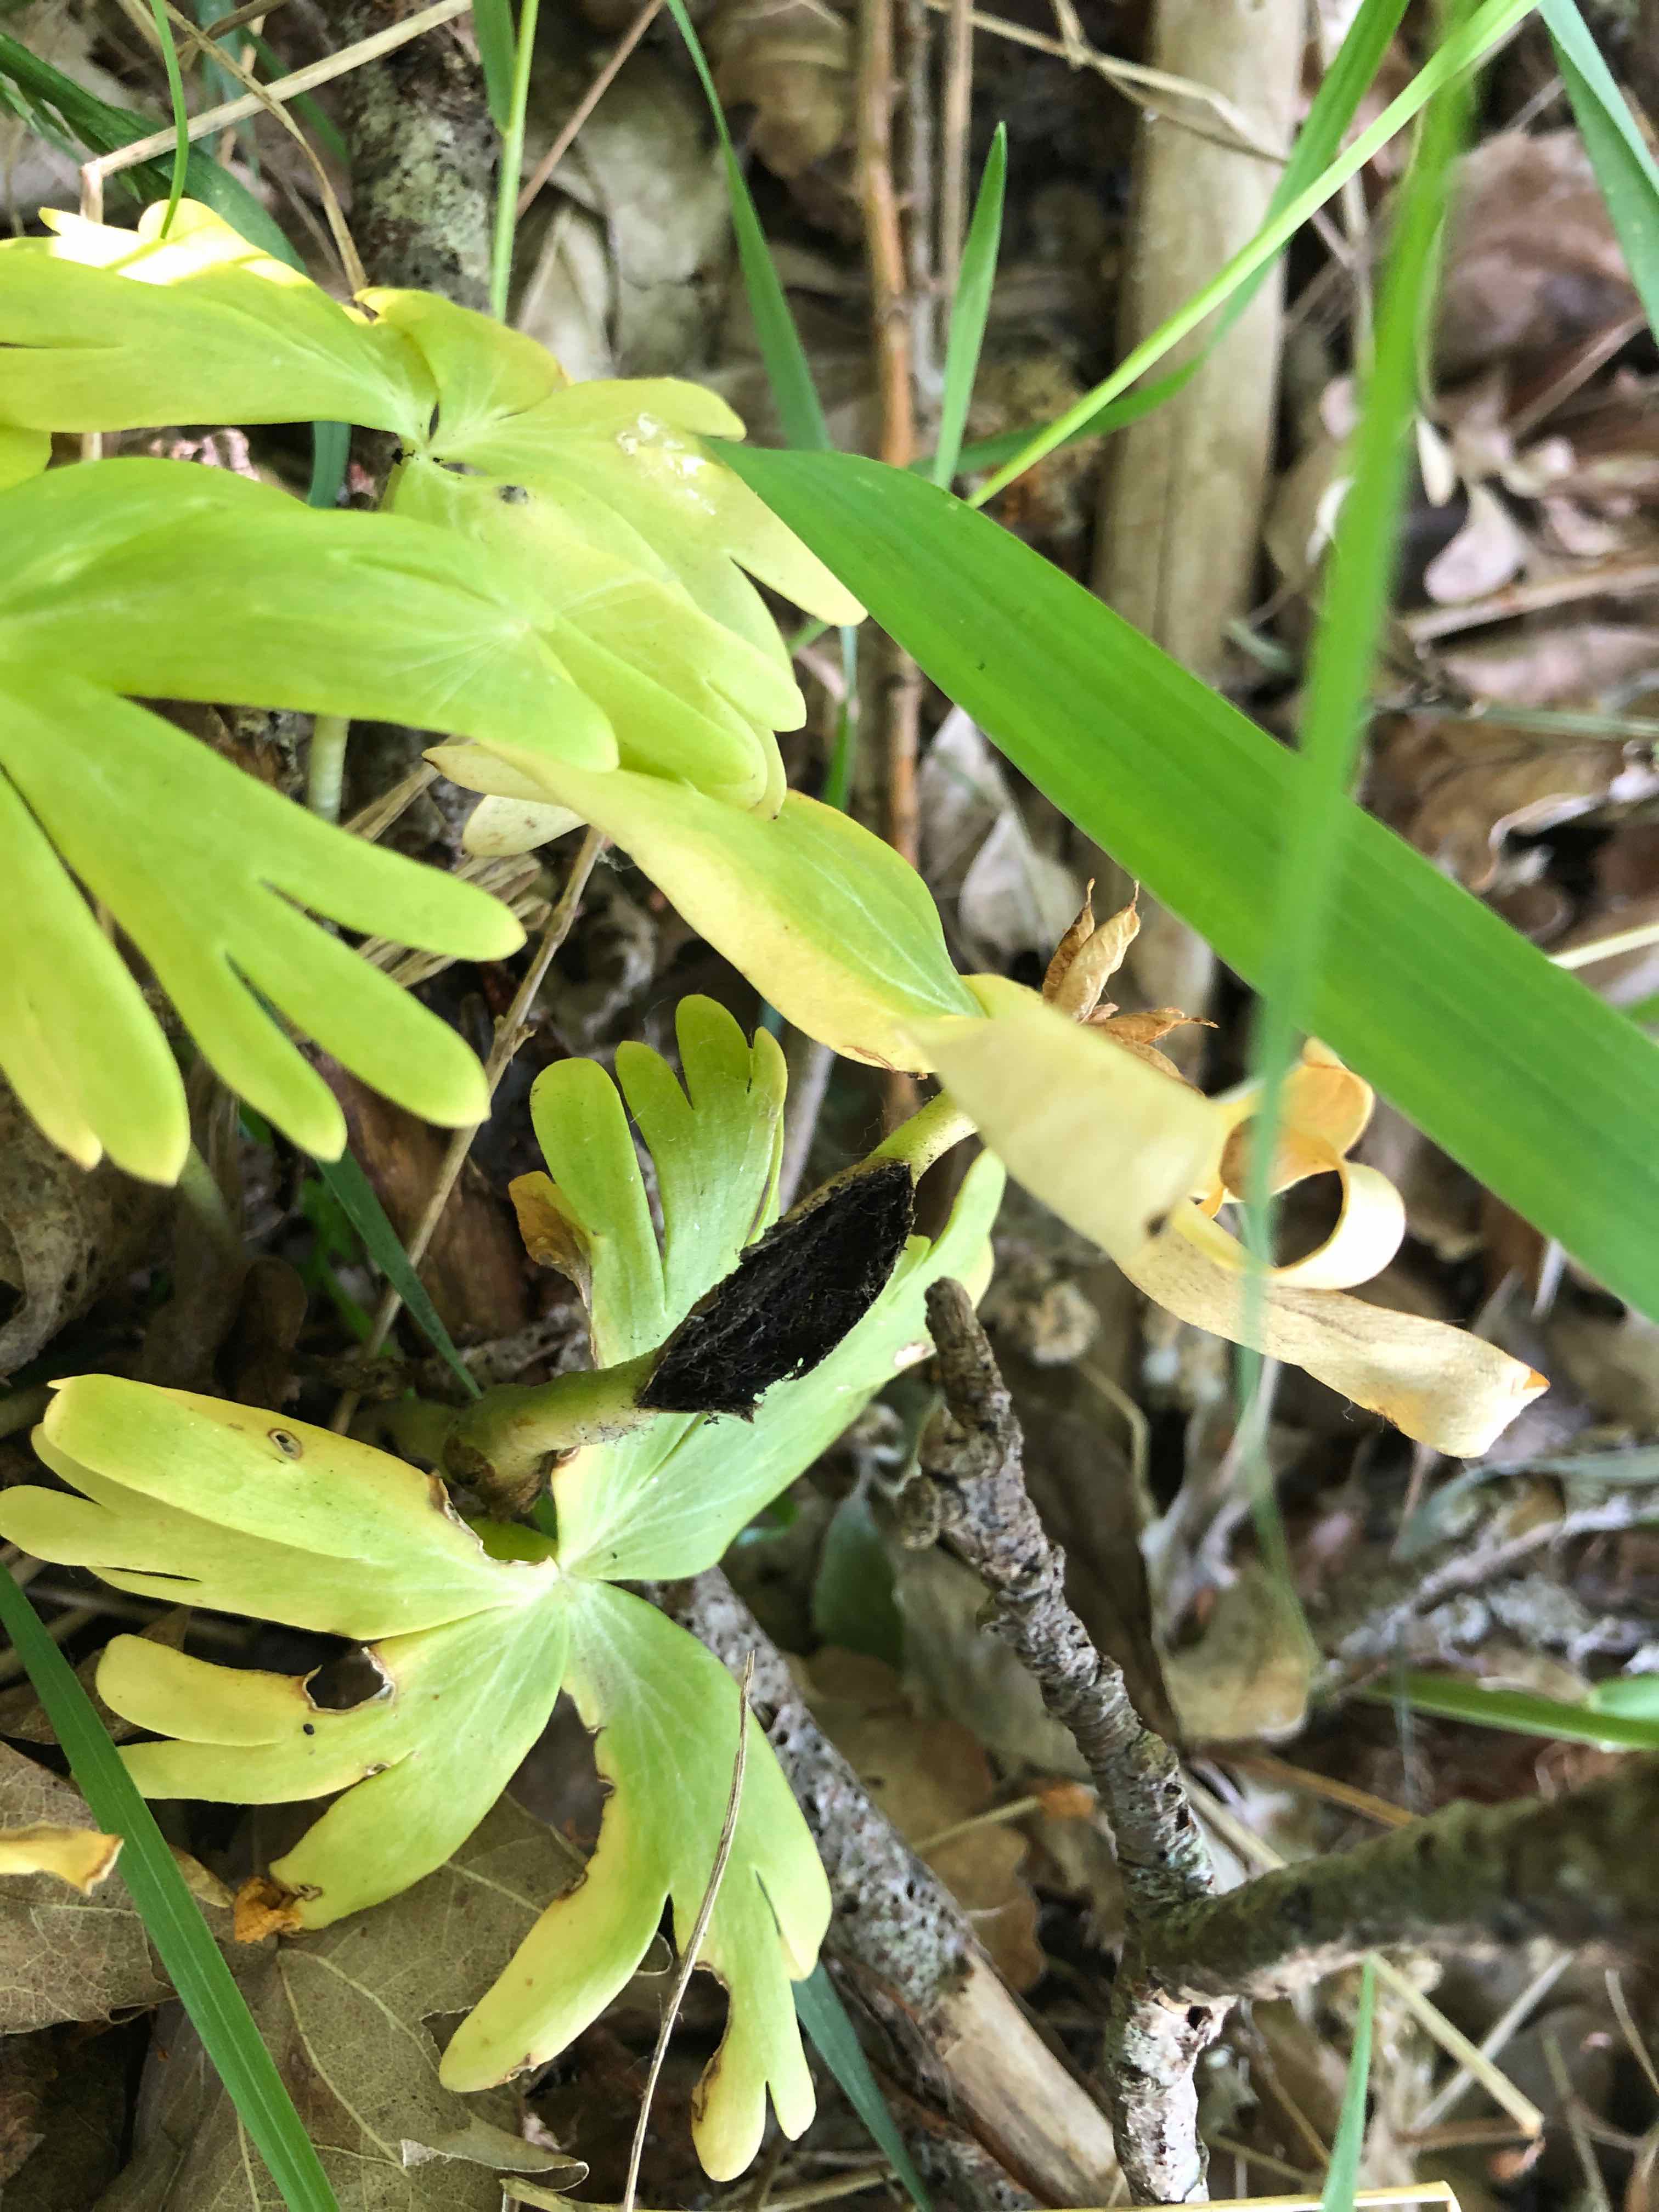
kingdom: Fungi
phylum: Basidiomycota
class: Ustilaginomycetes
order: Urocystidales
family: Urocystidaceae
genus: Urocystis
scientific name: Urocystis eranthidis
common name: erantis-brand
